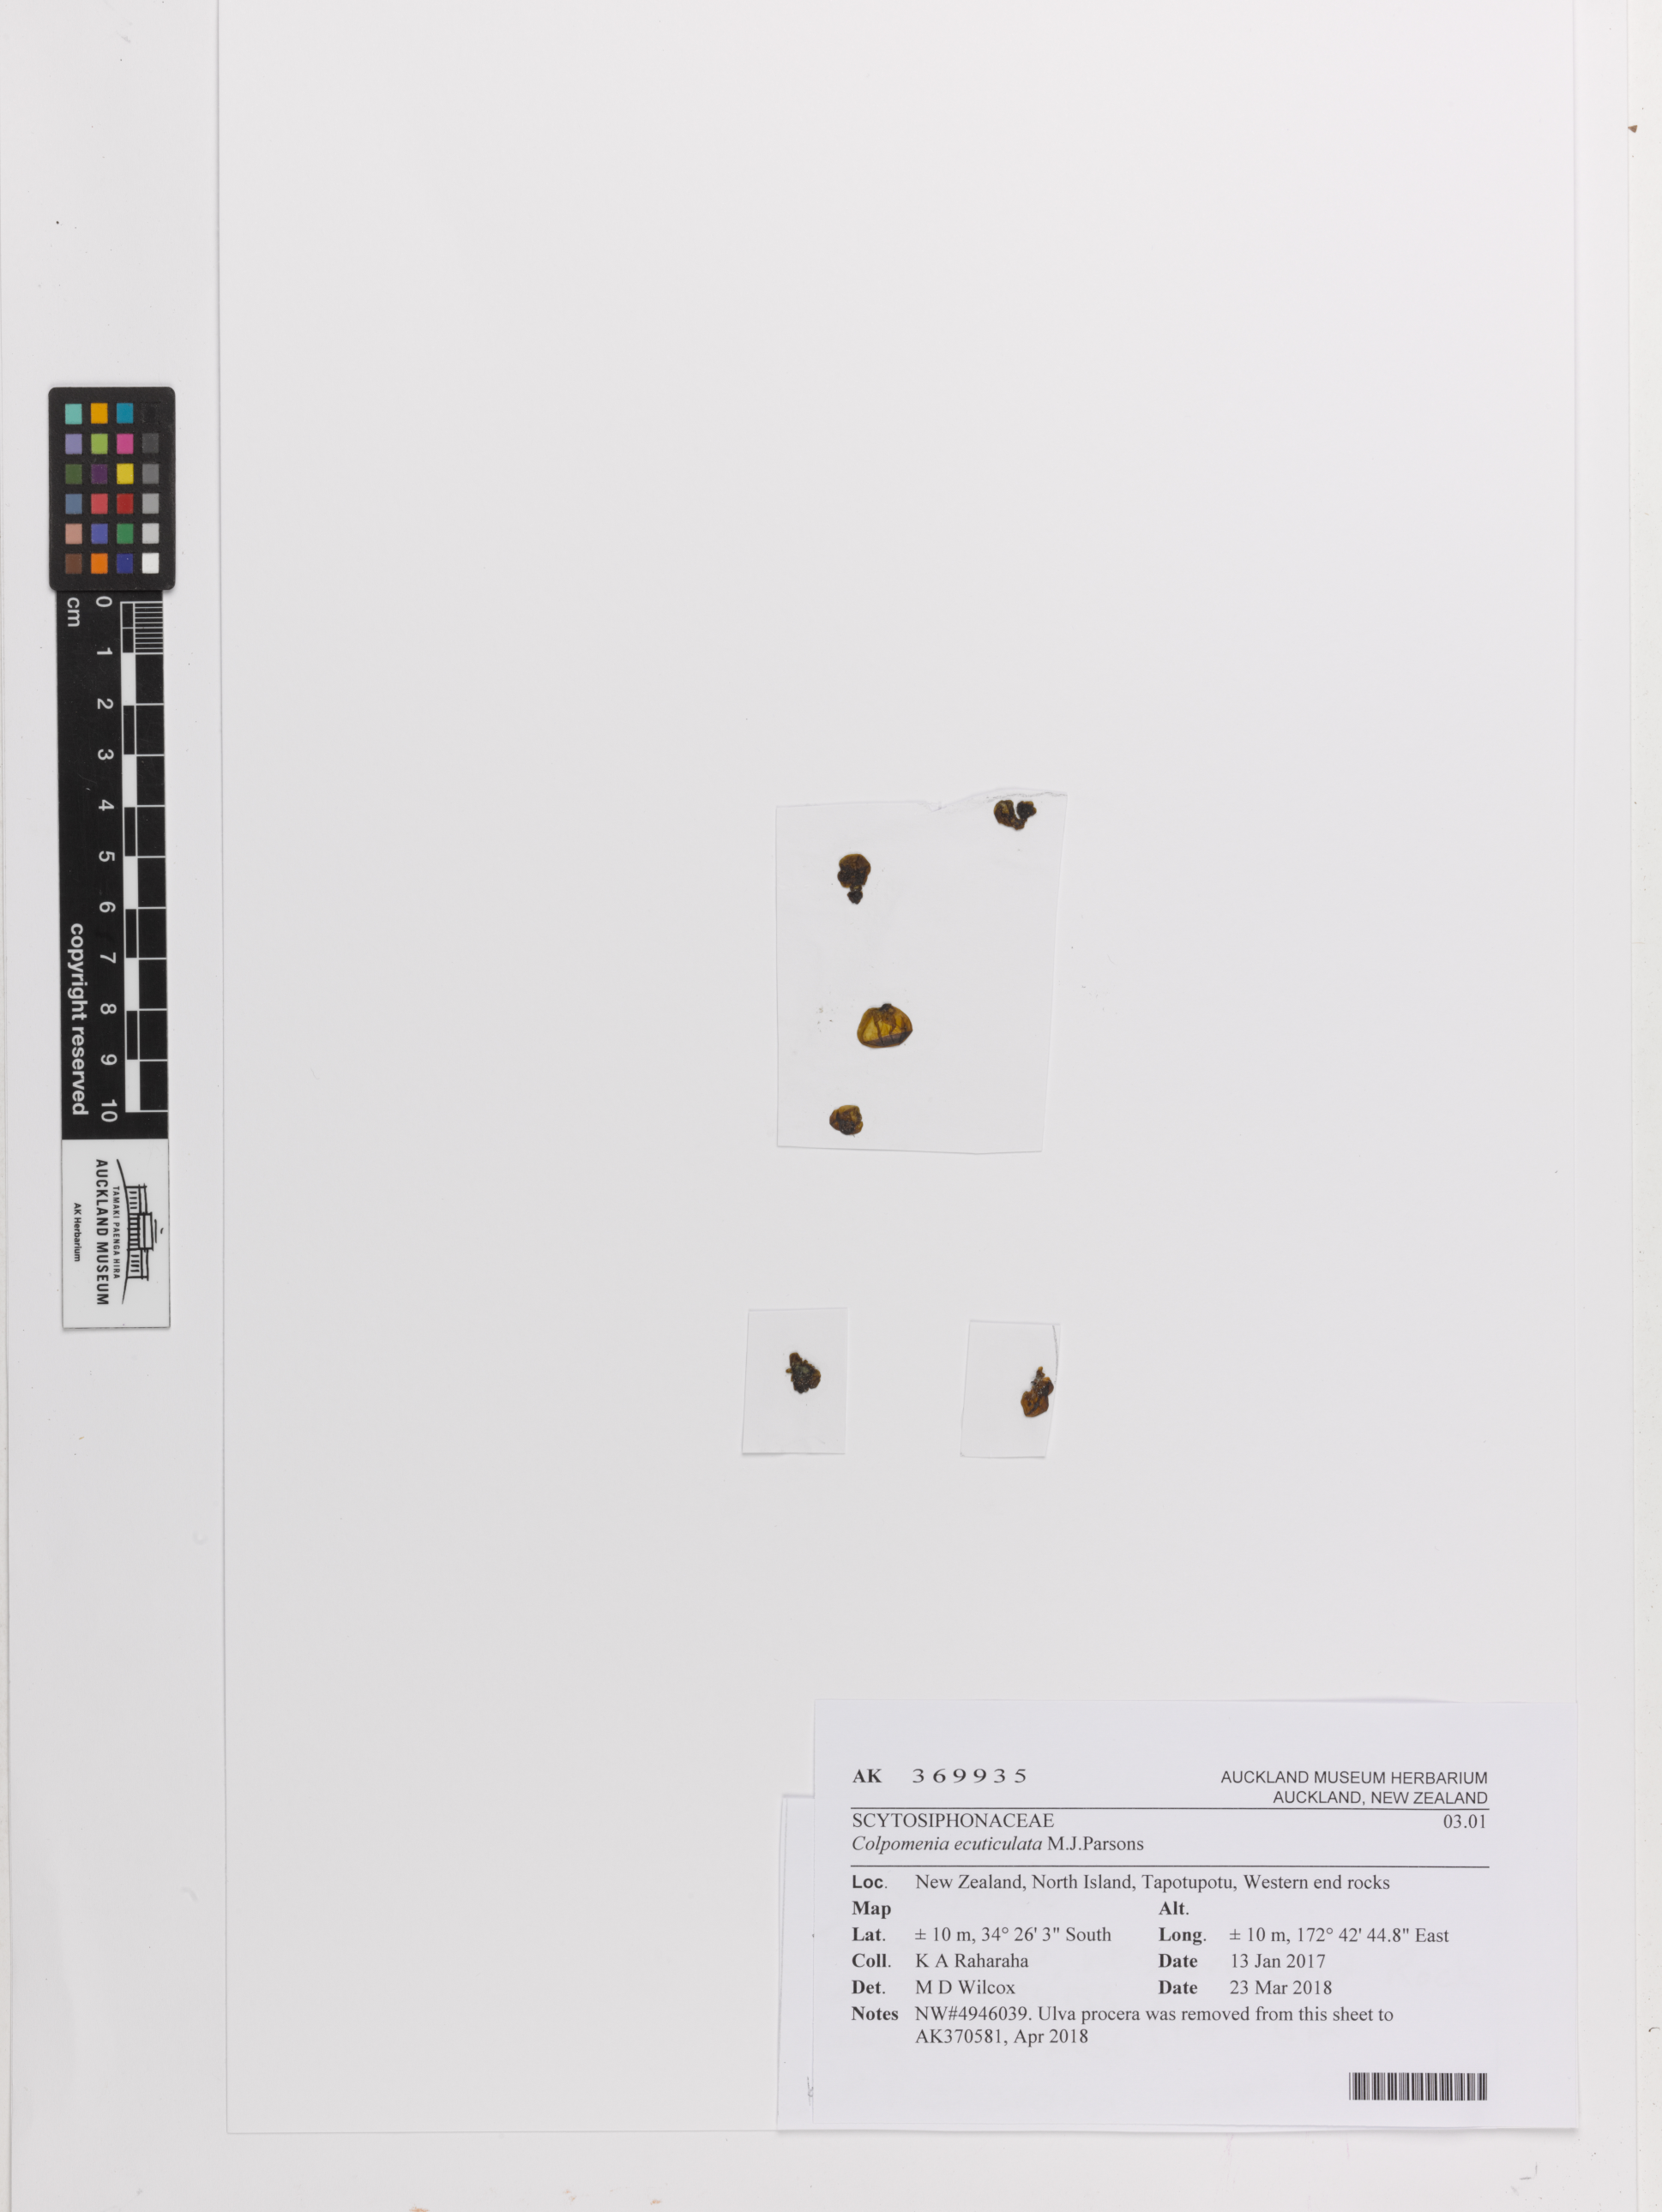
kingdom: Chromista
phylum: Ochrophyta
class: Phaeophyceae
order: Scytosiphonales
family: Scytosiphonaceae
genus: Colpomenia
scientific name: Colpomenia ecuticulata
